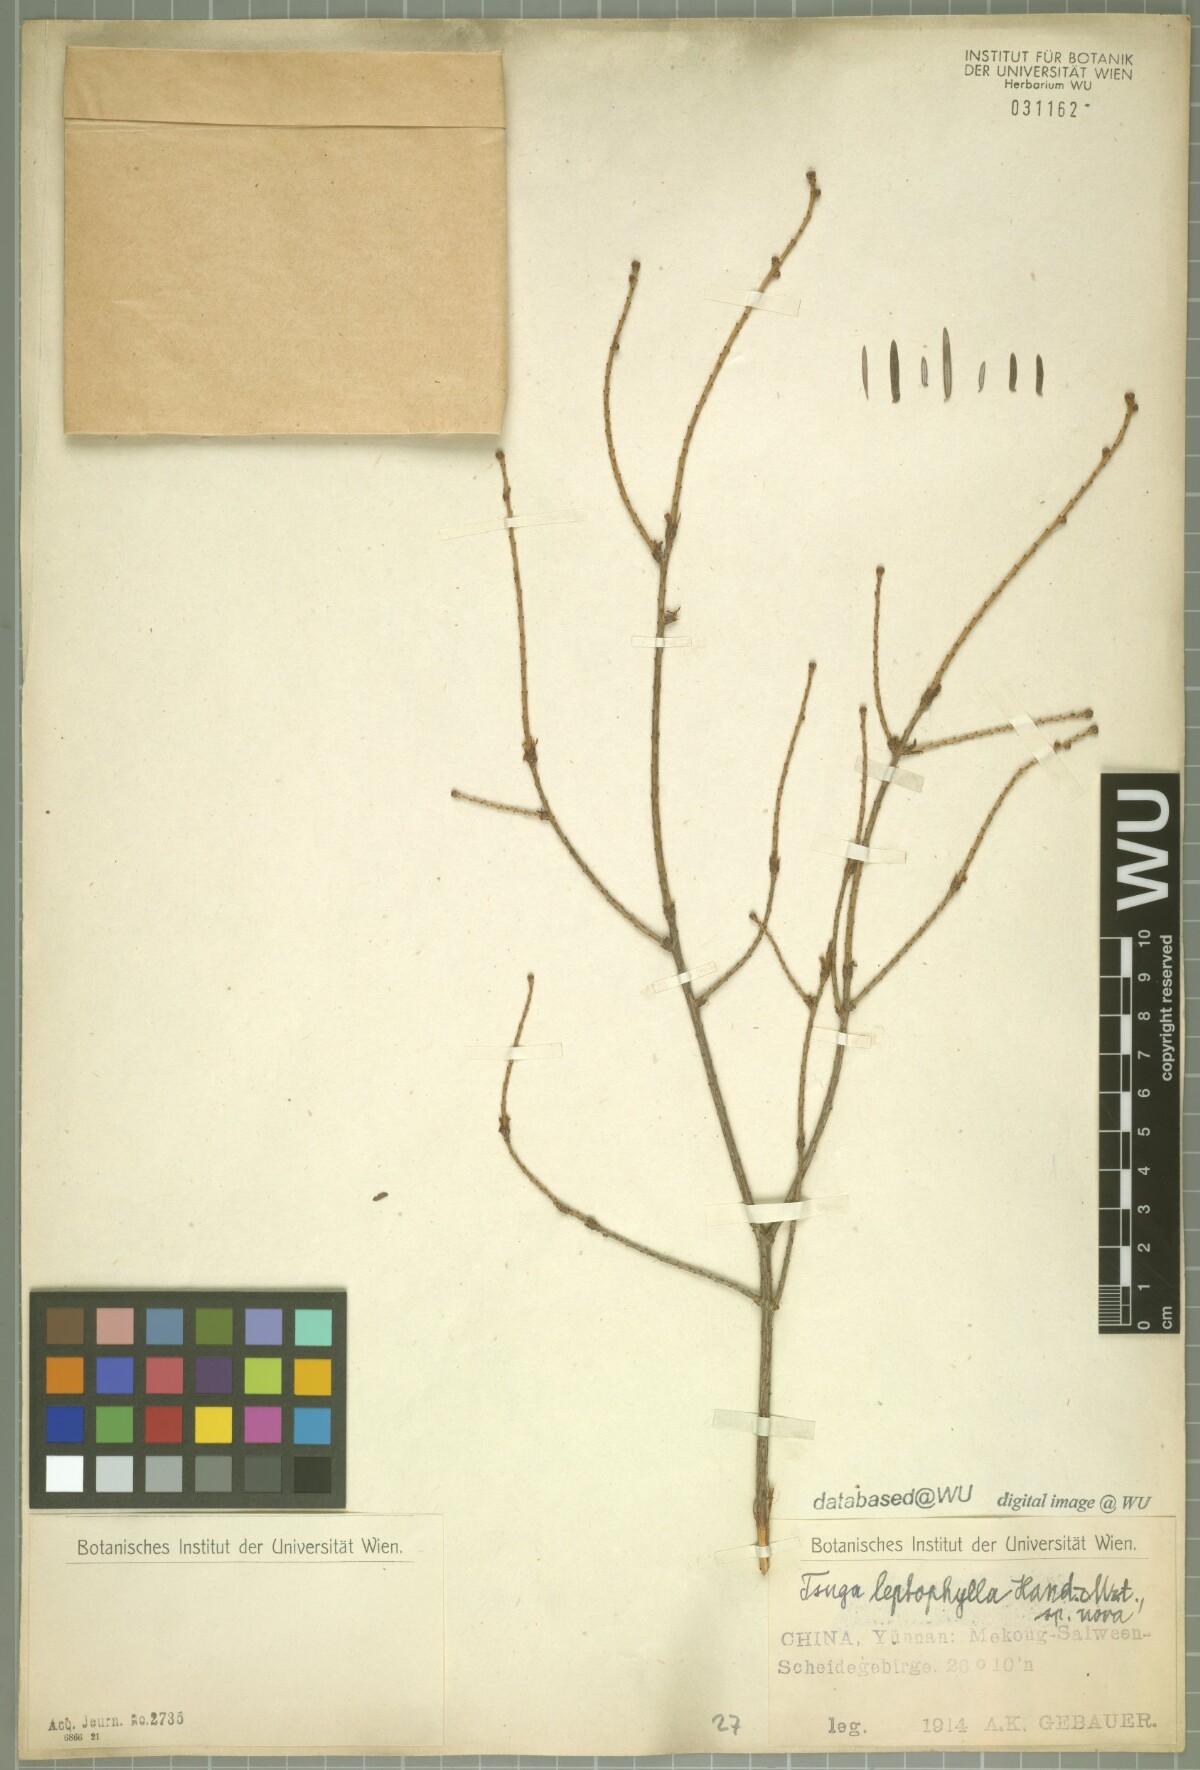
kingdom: Plantae
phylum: Tracheophyta
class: Pinopsida
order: Pinales
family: Pinaceae
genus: Tsuga
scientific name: Tsuga dumosa
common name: Himalayan hemlock
